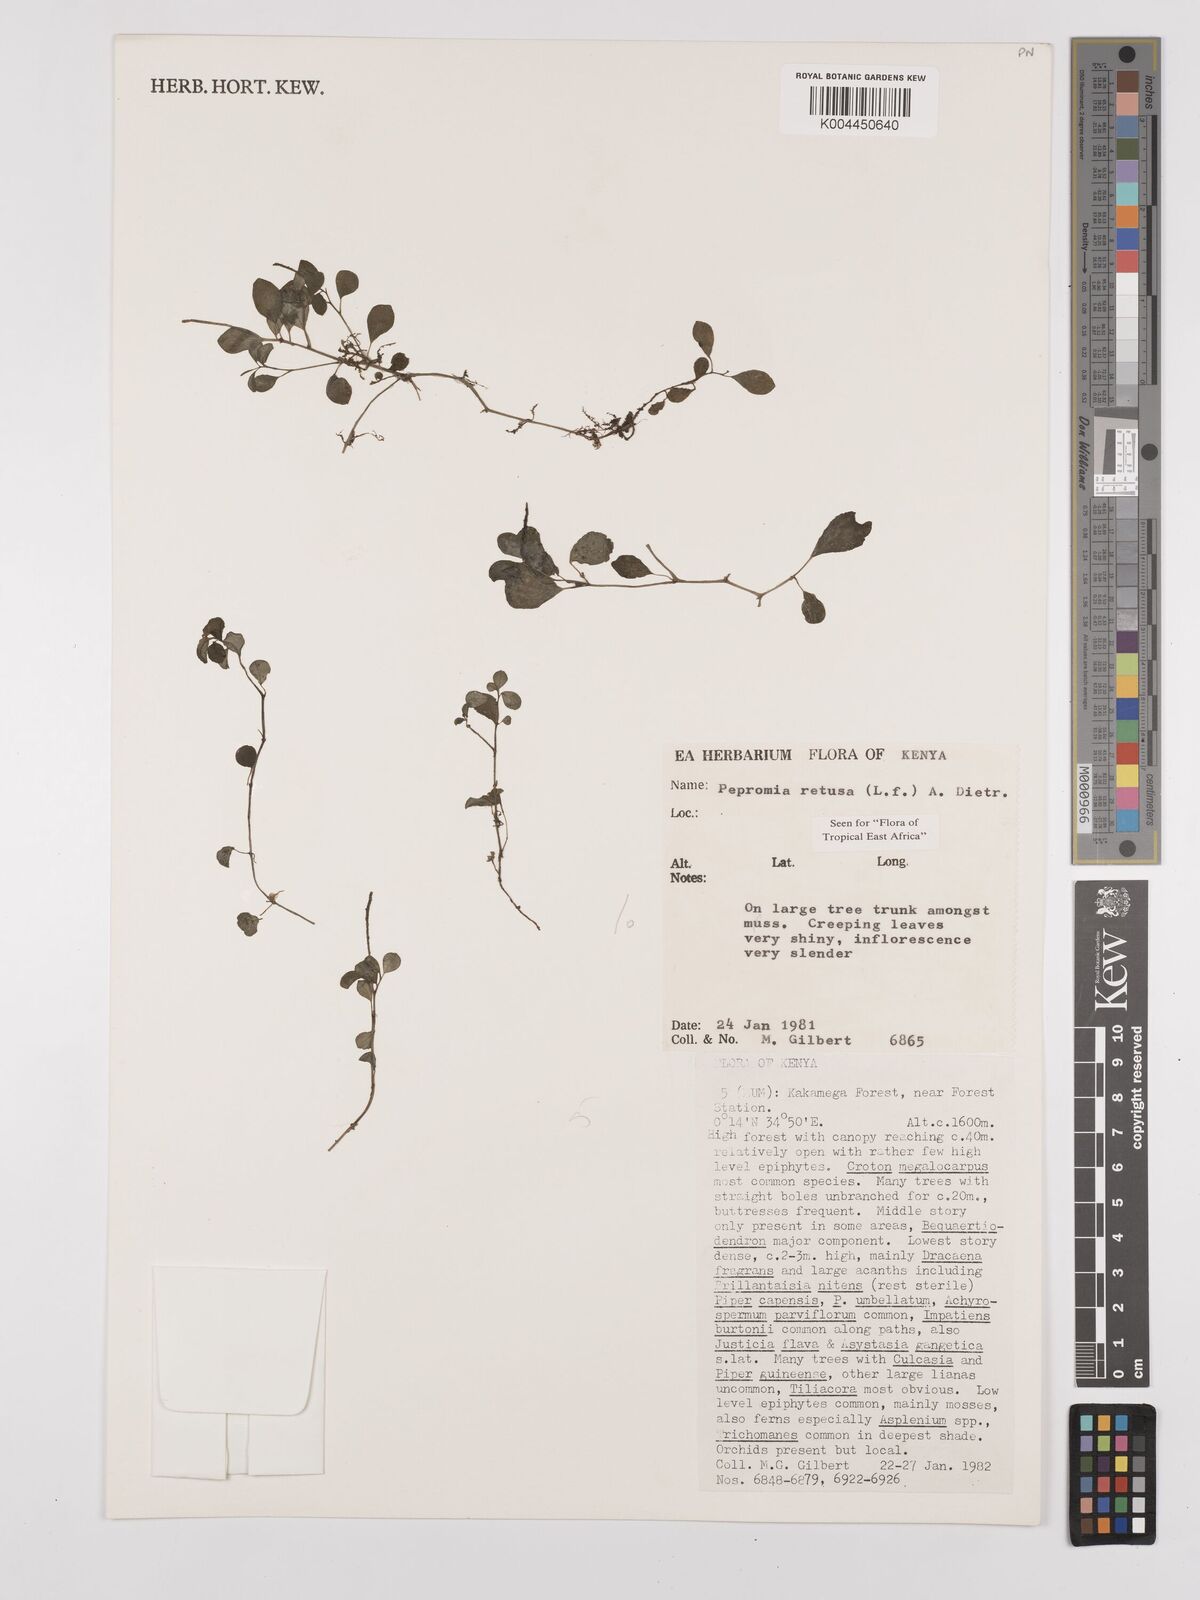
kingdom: Plantae
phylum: Tracheophyta
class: Magnoliopsida
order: Piperales
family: Piperaceae
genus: Peperomia
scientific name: Peperomia retusa
